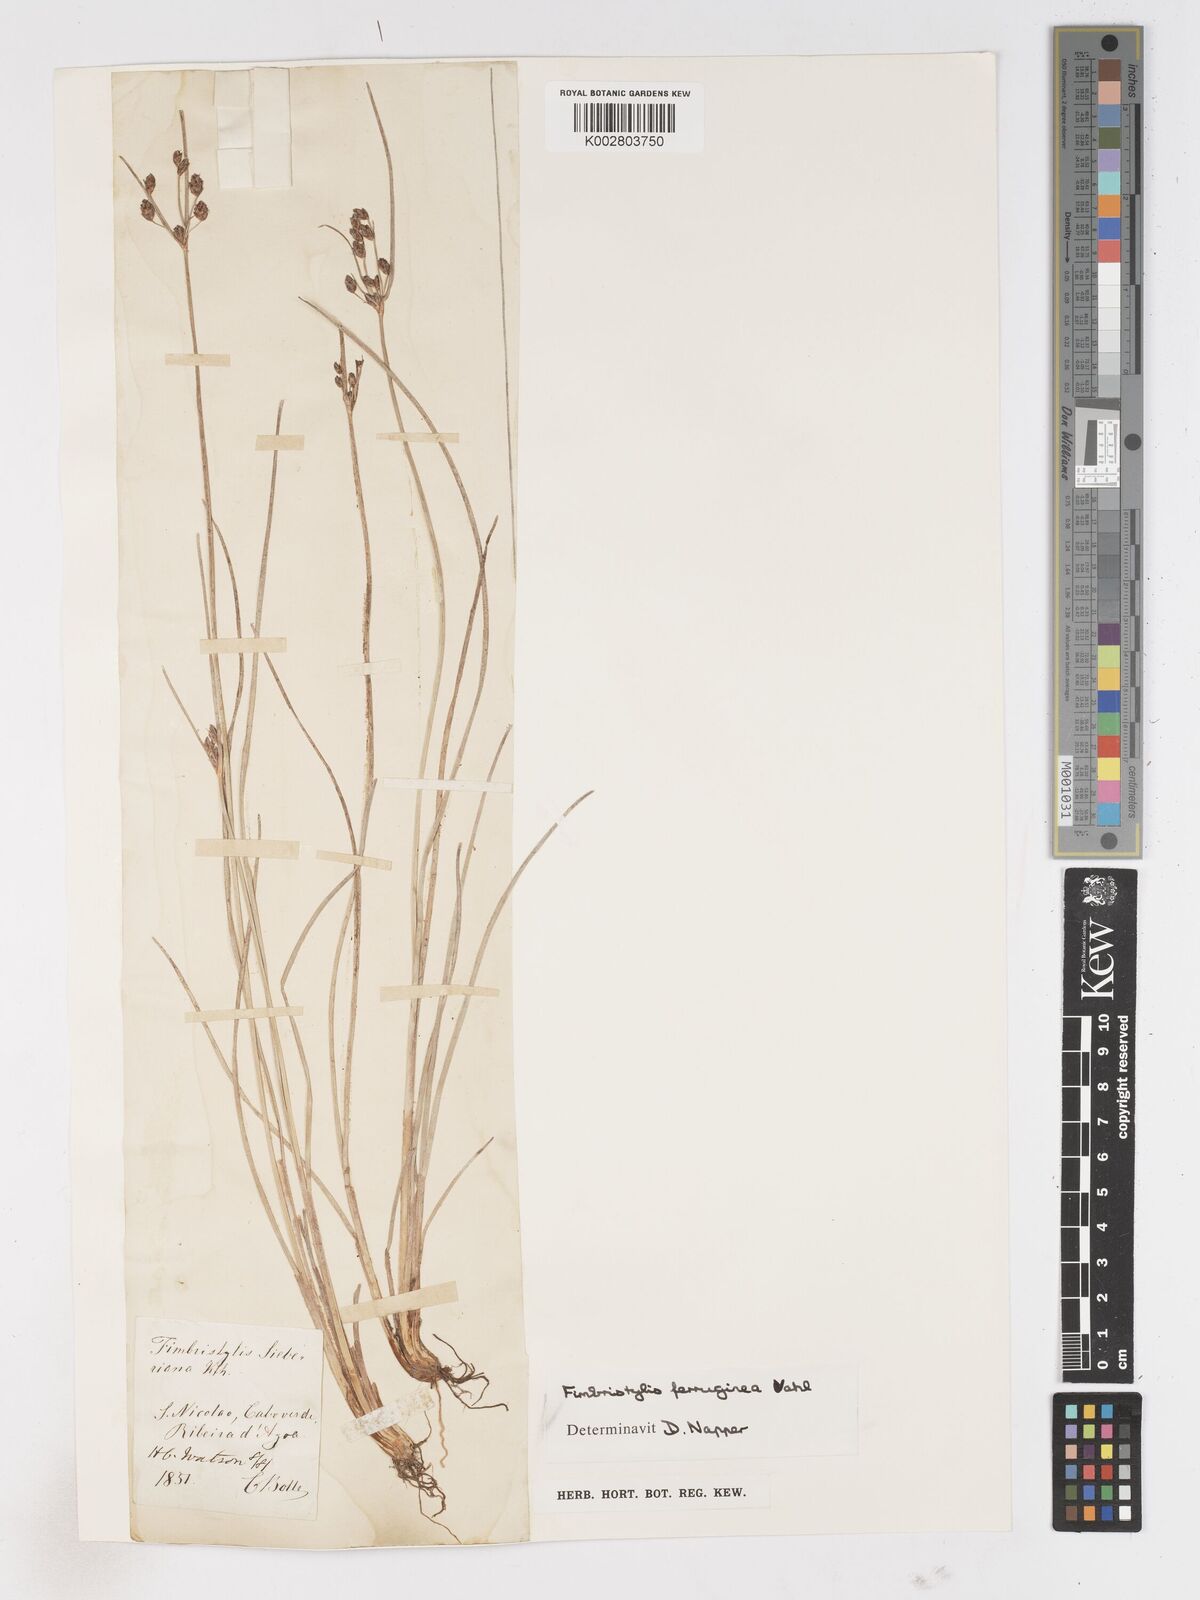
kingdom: Plantae
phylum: Tracheophyta
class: Liliopsida
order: Poales
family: Cyperaceae
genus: Fimbristylis
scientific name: Fimbristylis ferruginea
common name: West indian fimbry
